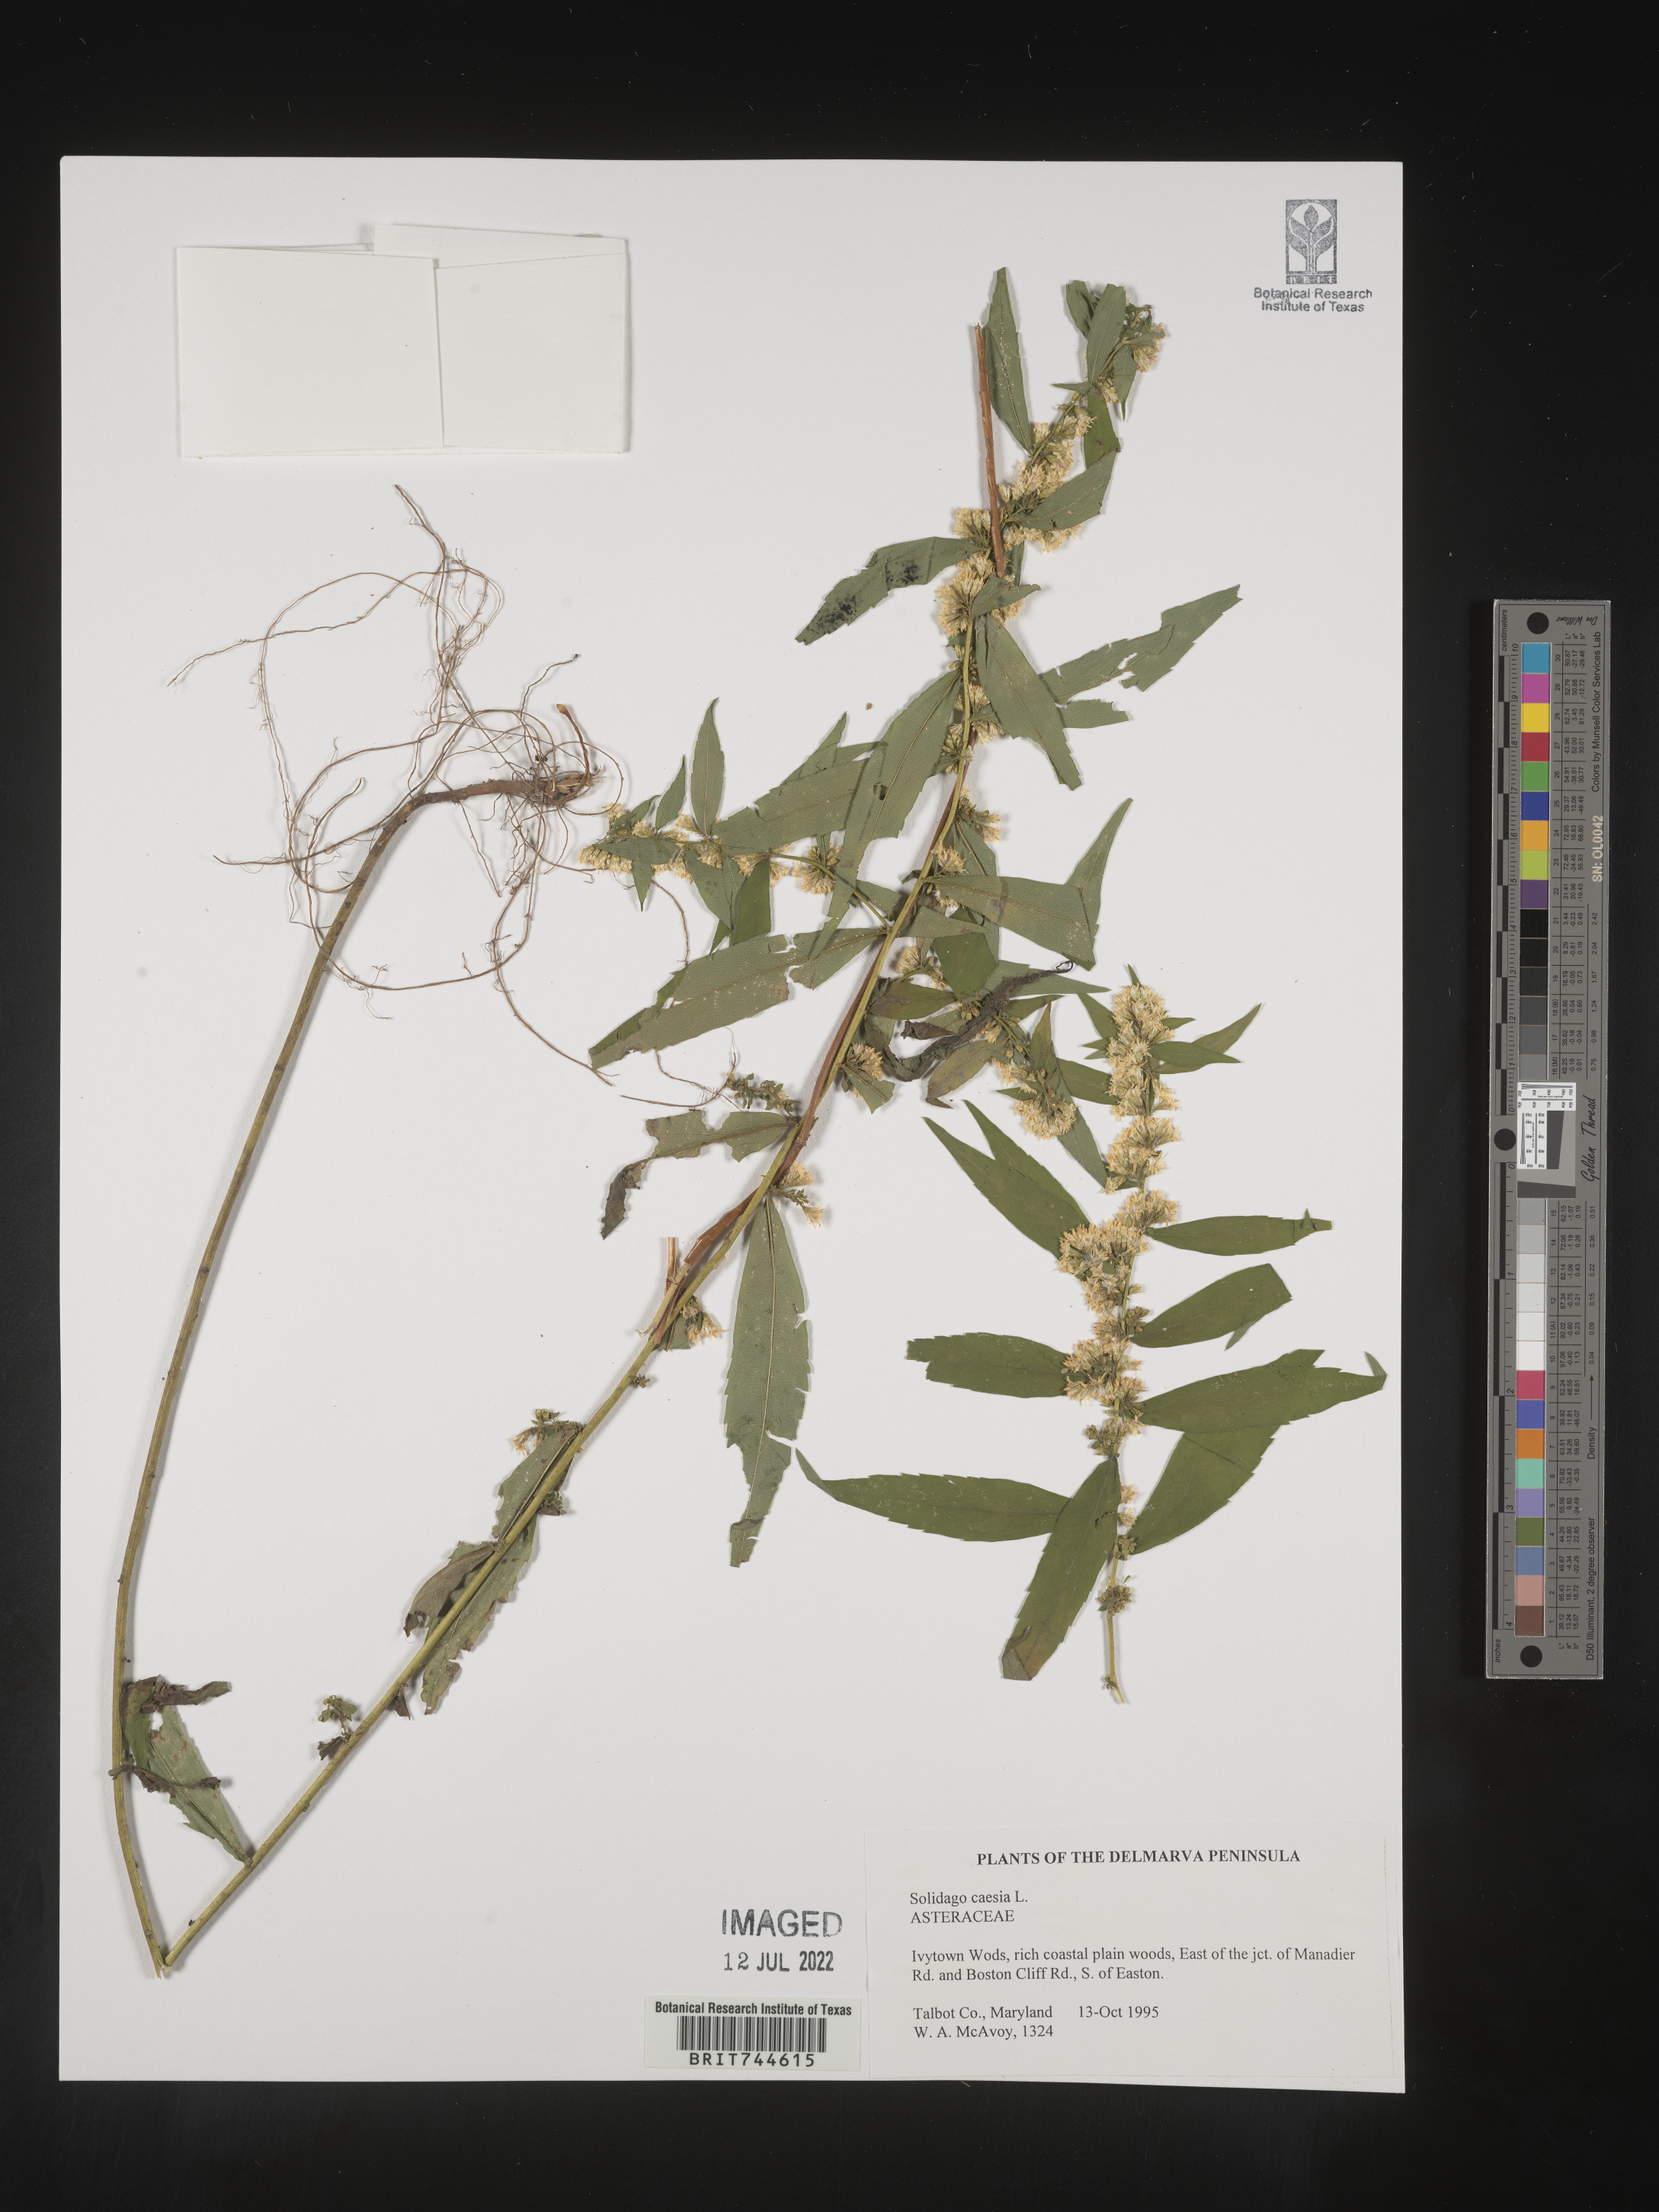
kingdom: Plantae
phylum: Tracheophyta
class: Magnoliopsida
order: Asterales
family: Asteraceae
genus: Solidago
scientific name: Solidago caesia
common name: Woodland goldenrod
